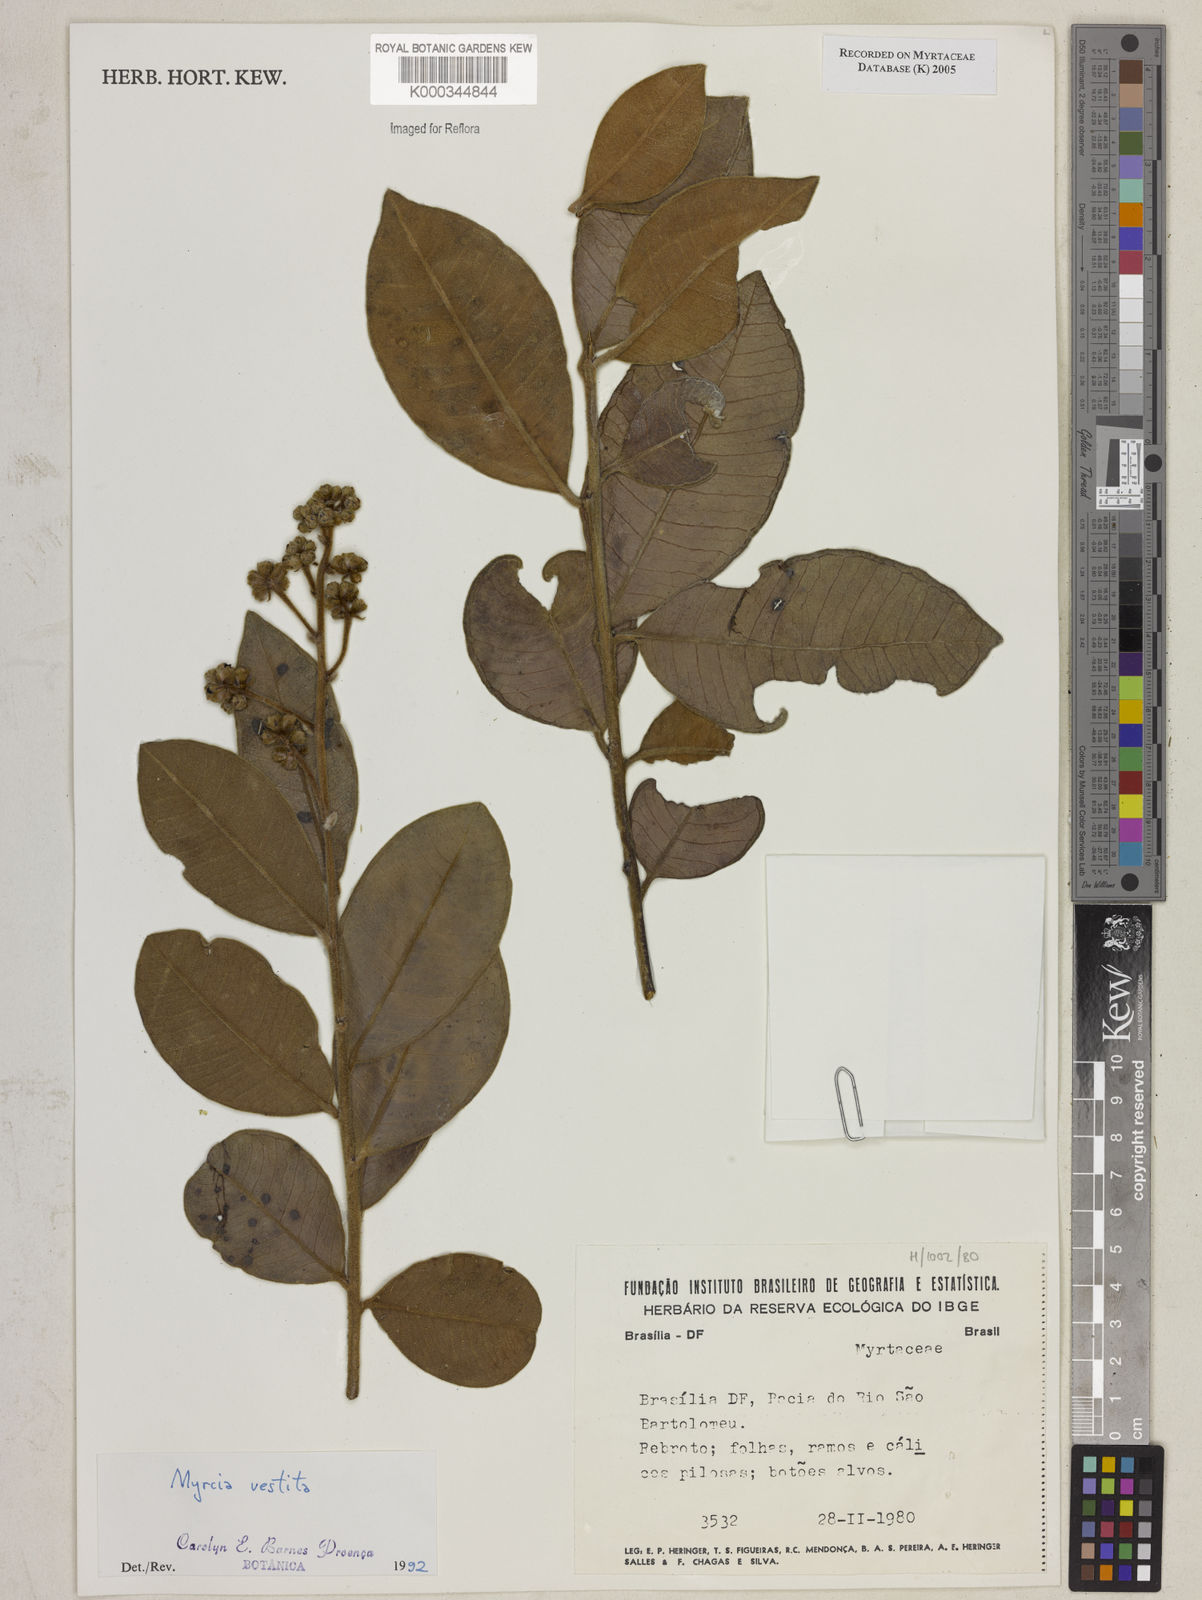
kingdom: Plantae
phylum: Tracheophyta
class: Magnoliopsida
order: Myrtales
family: Myrtaceae
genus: Myrcia
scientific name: Myrcia vestita
